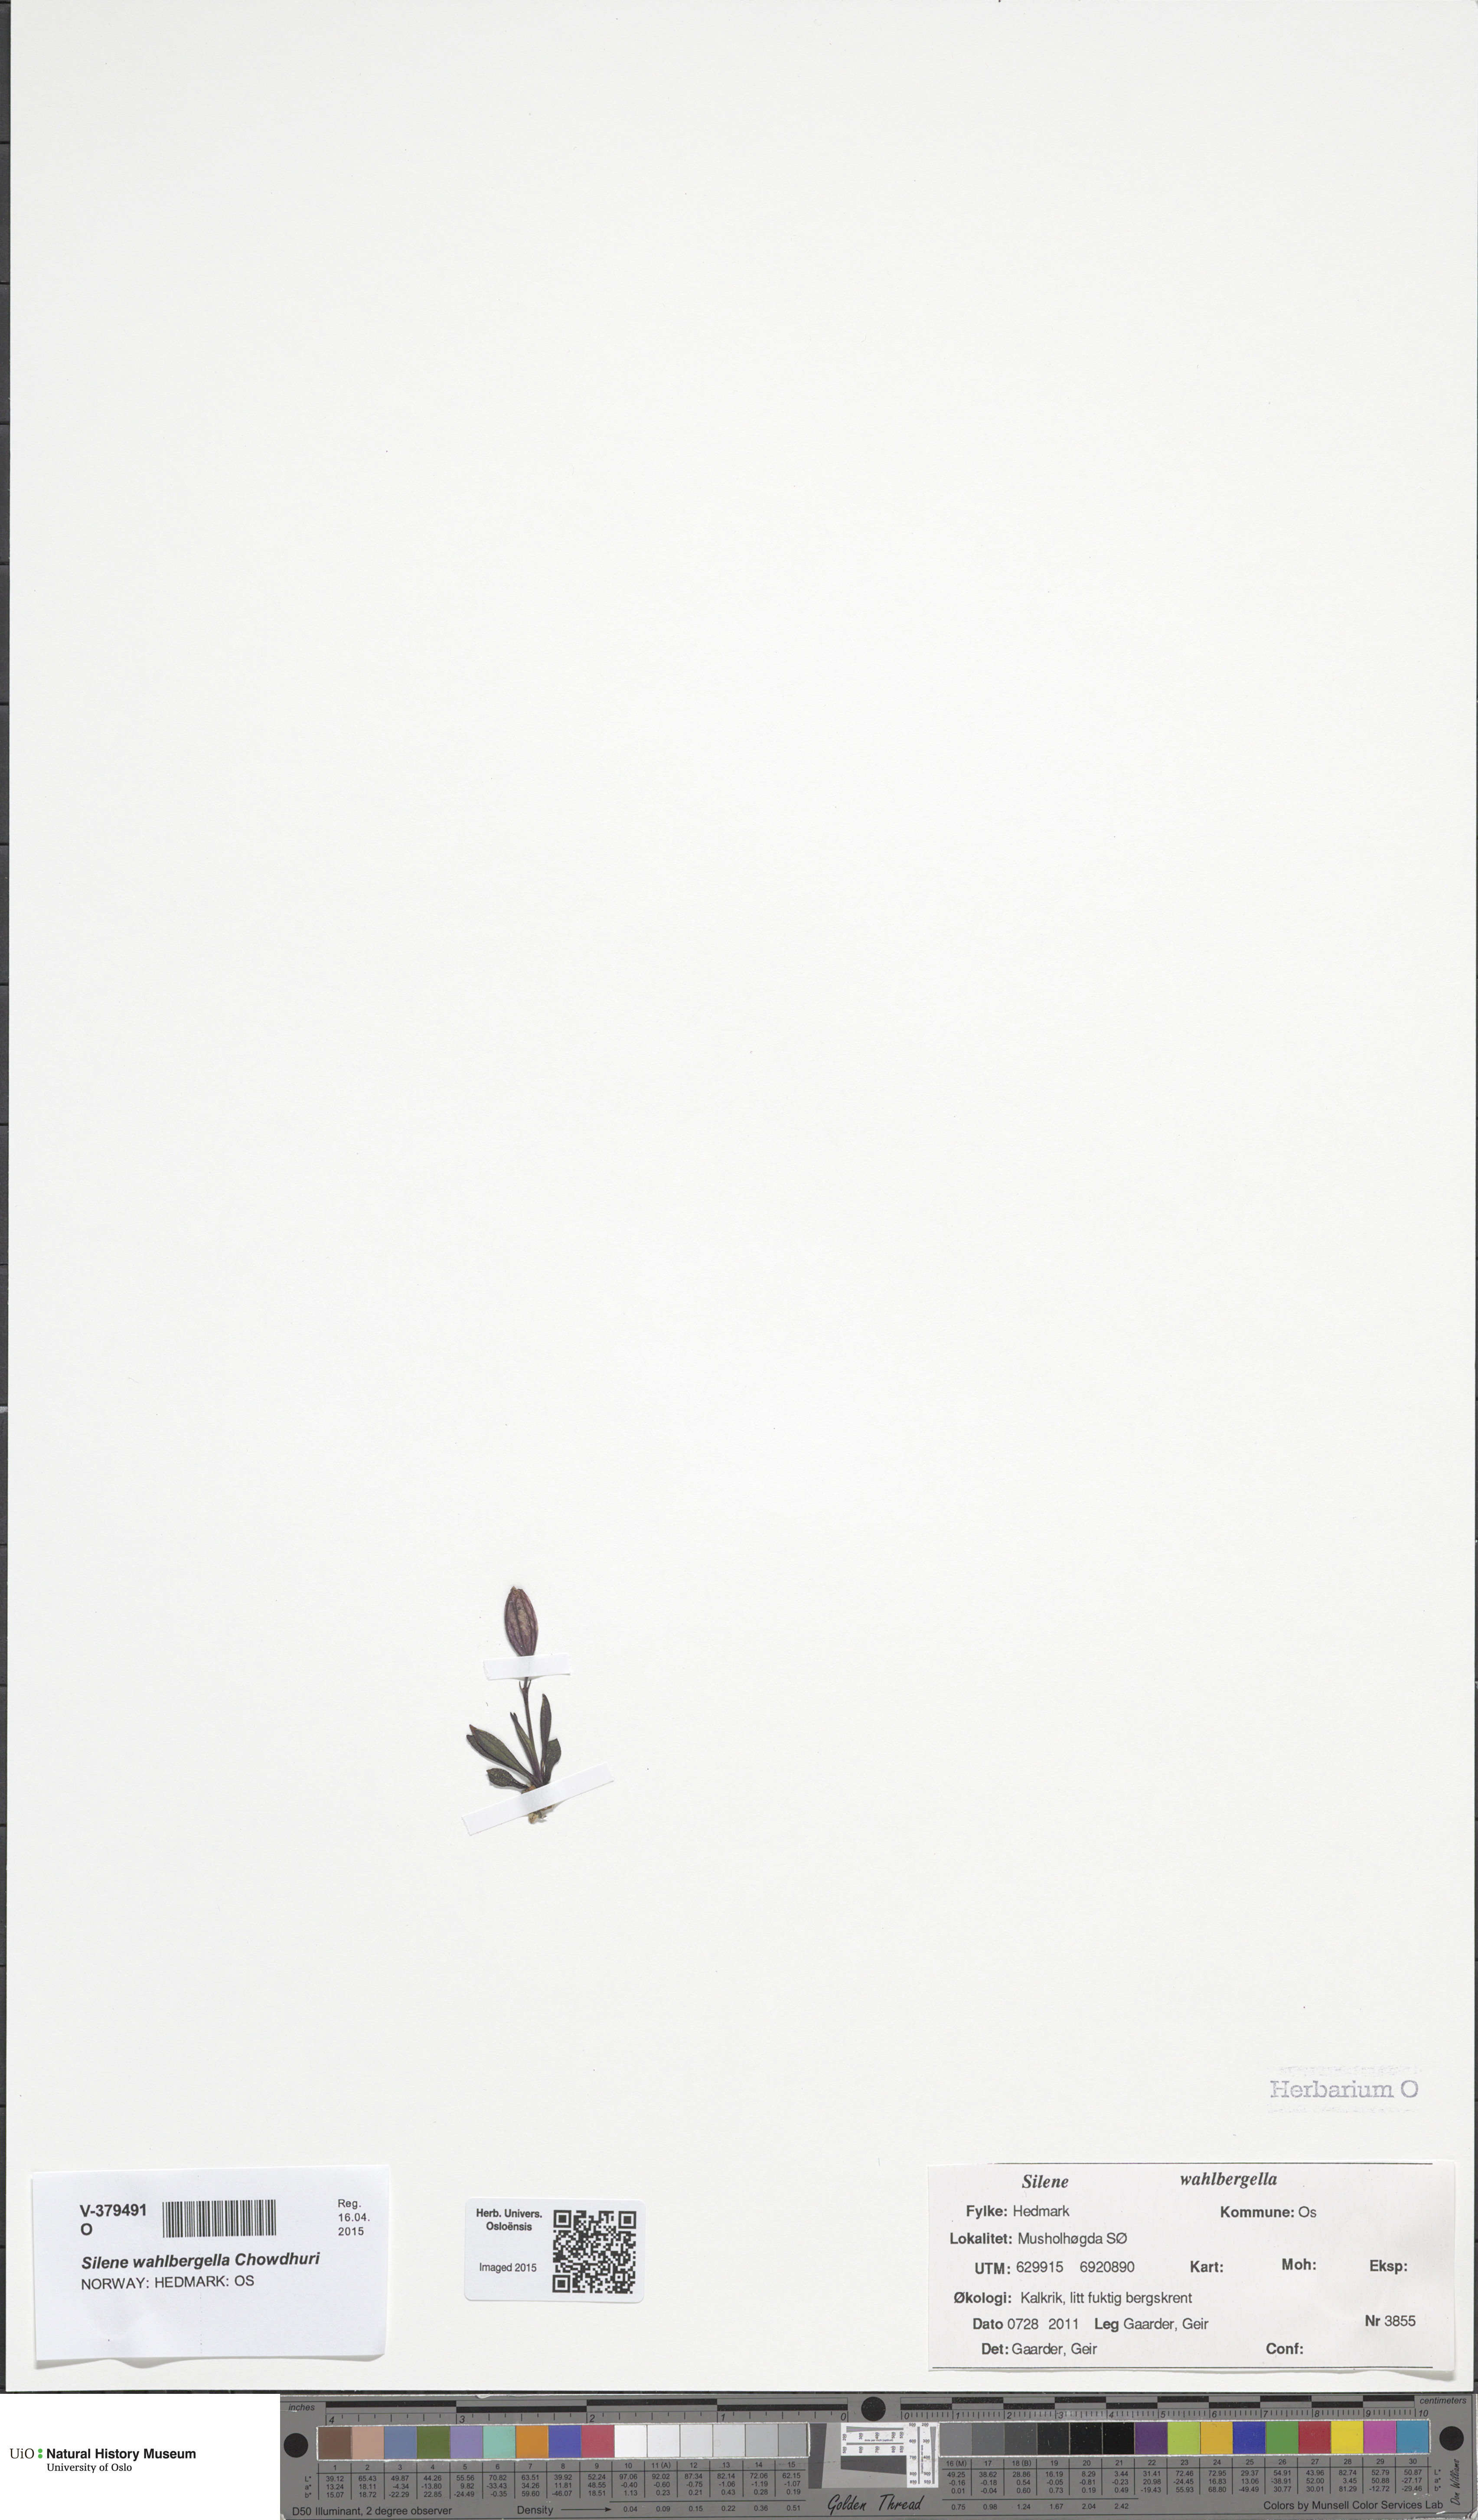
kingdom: Plantae
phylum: Tracheophyta
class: Magnoliopsida
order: Caryophyllales
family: Caryophyllaceae
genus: Silene
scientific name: Silene wahlbergella
